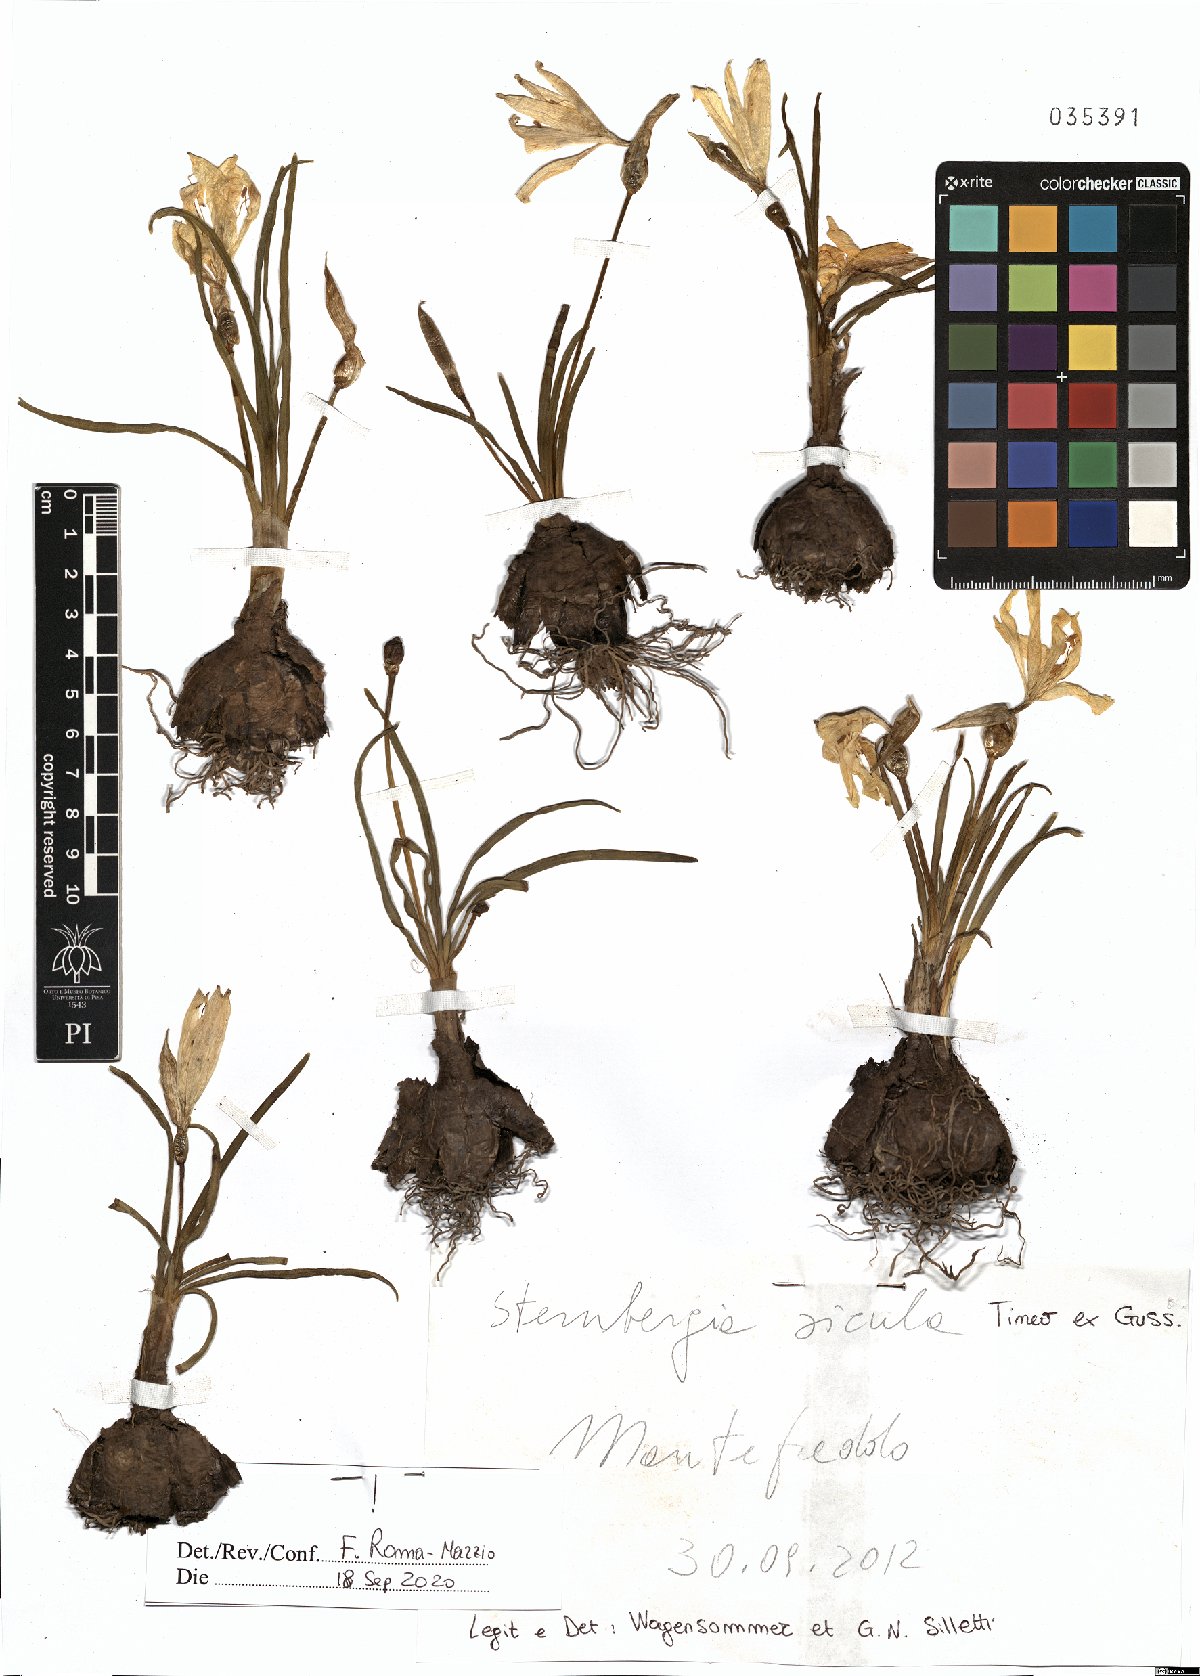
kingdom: Plantae
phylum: Tracheophyta
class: Liliopsida
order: Asparagales
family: Amaryllidaceae
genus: Sternbergia
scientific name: Sternbergia lutea
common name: Winter daffodil
